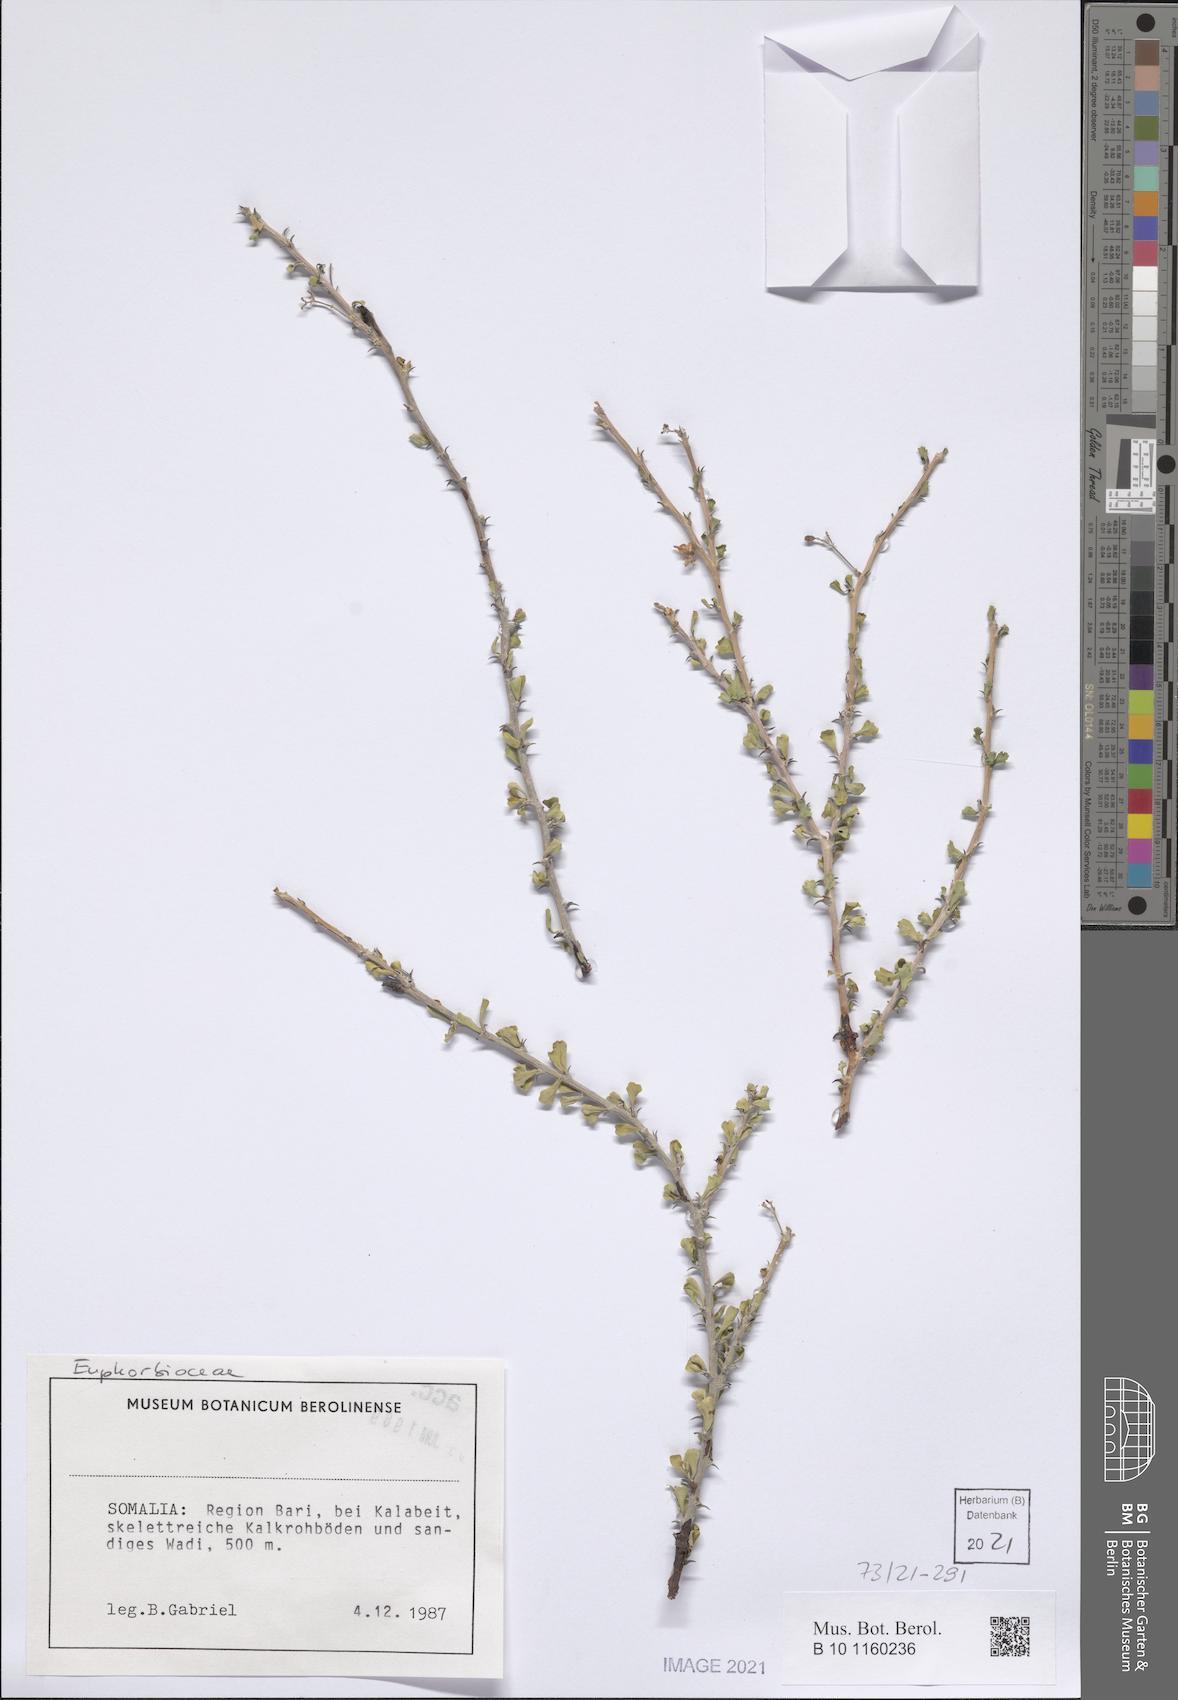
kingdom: Plantae
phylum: Tracheophyta
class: Magnoliopsida
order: Malpighiales
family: Euphorbiaceae
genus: Jatropha
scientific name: Jatropha rivae
